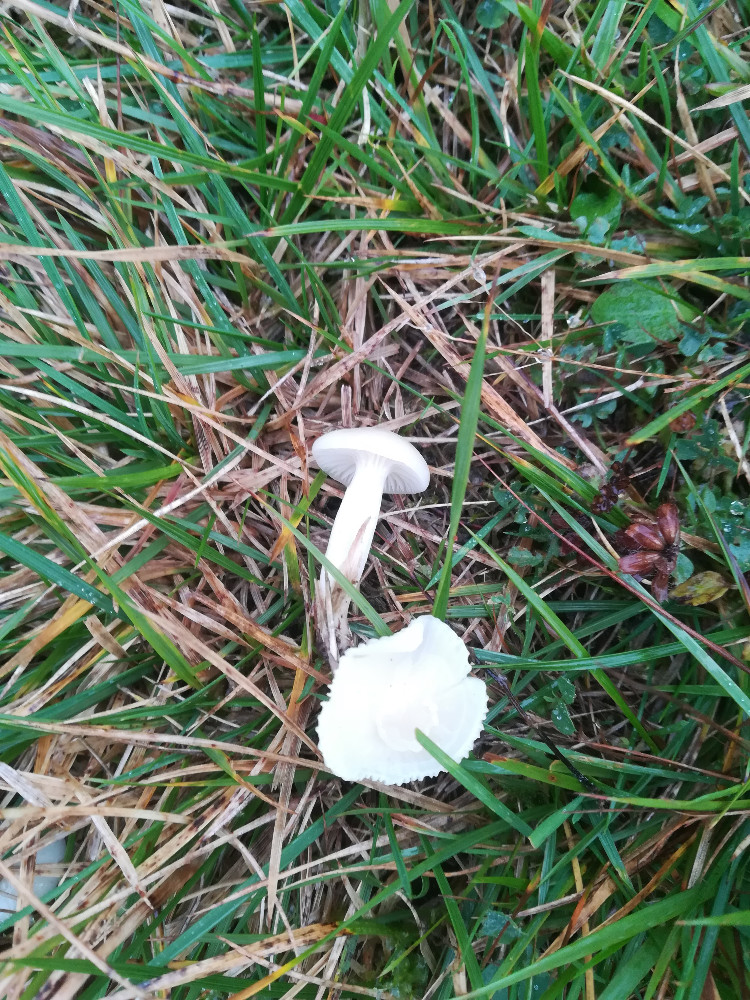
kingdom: Fungi
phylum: Basidiomycota
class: Agaricomycetes
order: Agaricales
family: Hygrophoraceae
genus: Cuphophyllus
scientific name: Cuphophyllus virgineus
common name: snehvid vokshat
